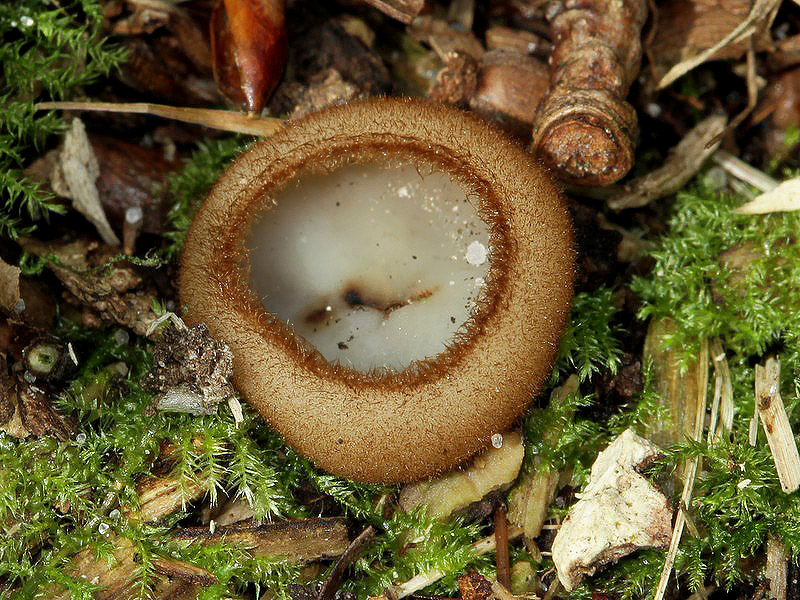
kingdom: Fungi
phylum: Ascomycota
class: Pezizomycetes
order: Pezizales
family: Pyronemataceae
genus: Humaria
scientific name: Humaria hemisphaerica
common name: halvkugleformet børstebæger
